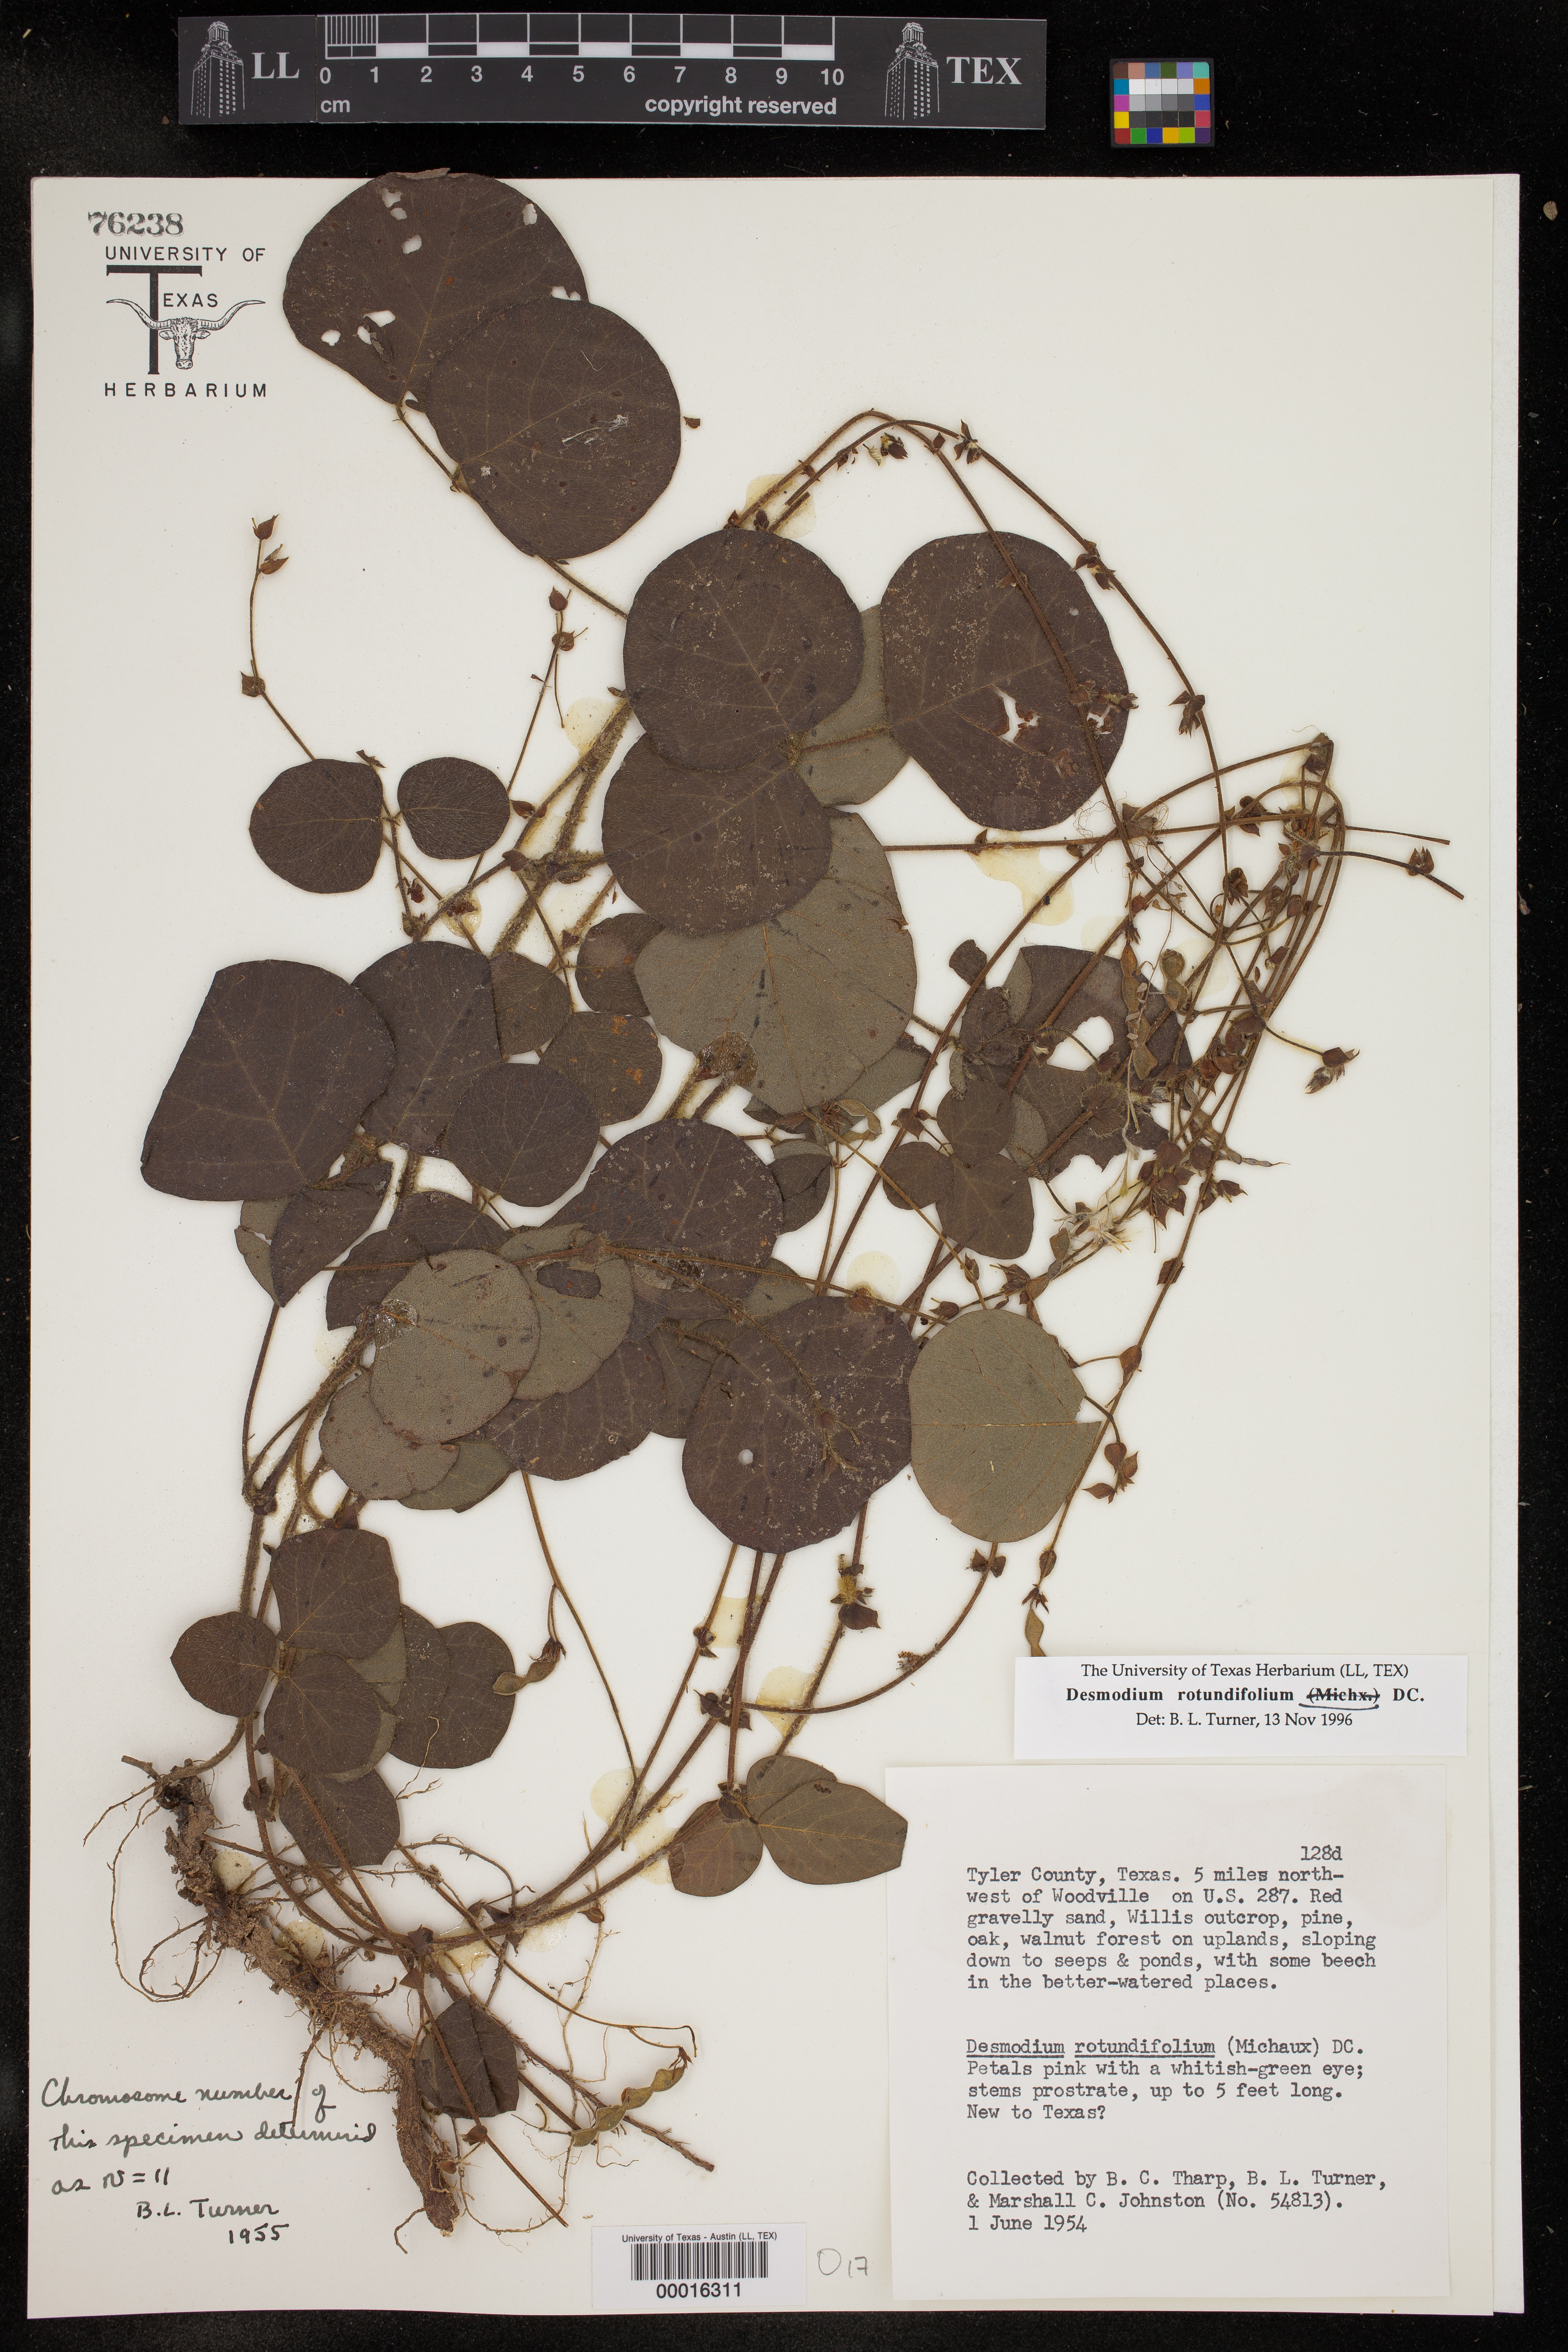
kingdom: Plantae
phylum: Tracheophyta
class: Magnoliopsida
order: Fabales
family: Fabaceae
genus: Desmodium
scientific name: Desmodium rotundifolium
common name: Dollarleaf
